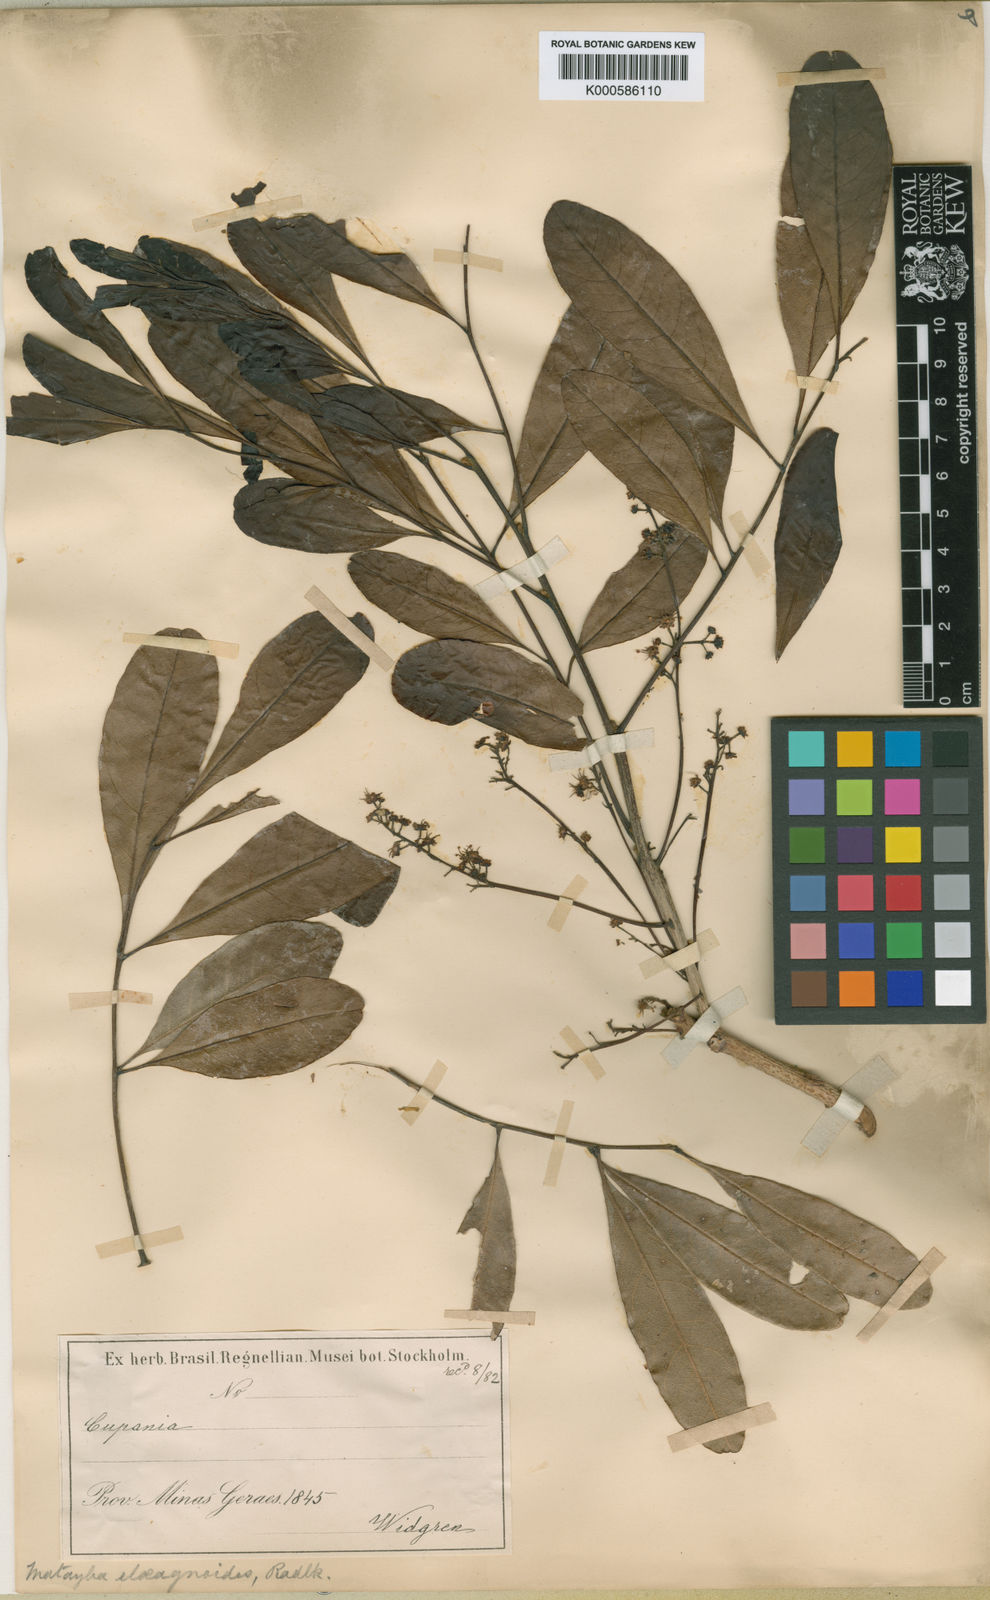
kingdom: Plantae
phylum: Tracheophyta
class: Magnoliopsida
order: Sapindales
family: Sapindaceae
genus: Matayba
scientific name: Matayba elaeagnoides
